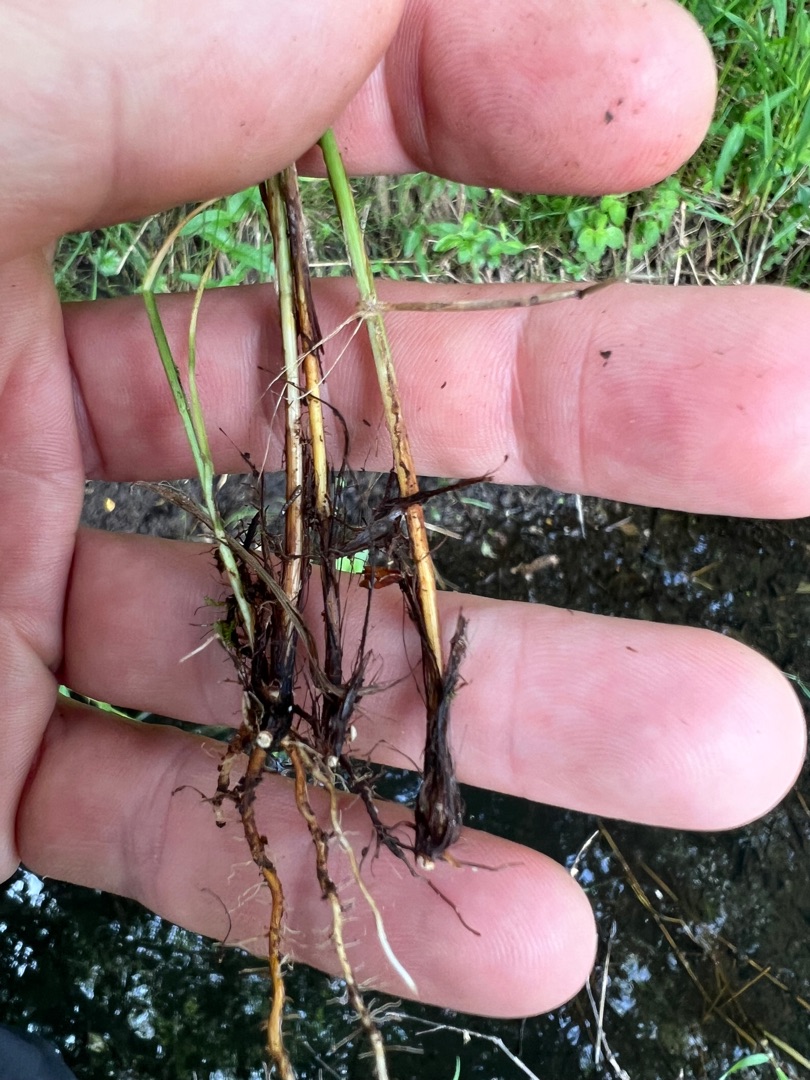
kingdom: Plantae
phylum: Tracheophyta
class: Liliopsida
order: Poales
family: Cyperaceae
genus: Carex
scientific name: Carex appropinquata
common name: Langakset star
